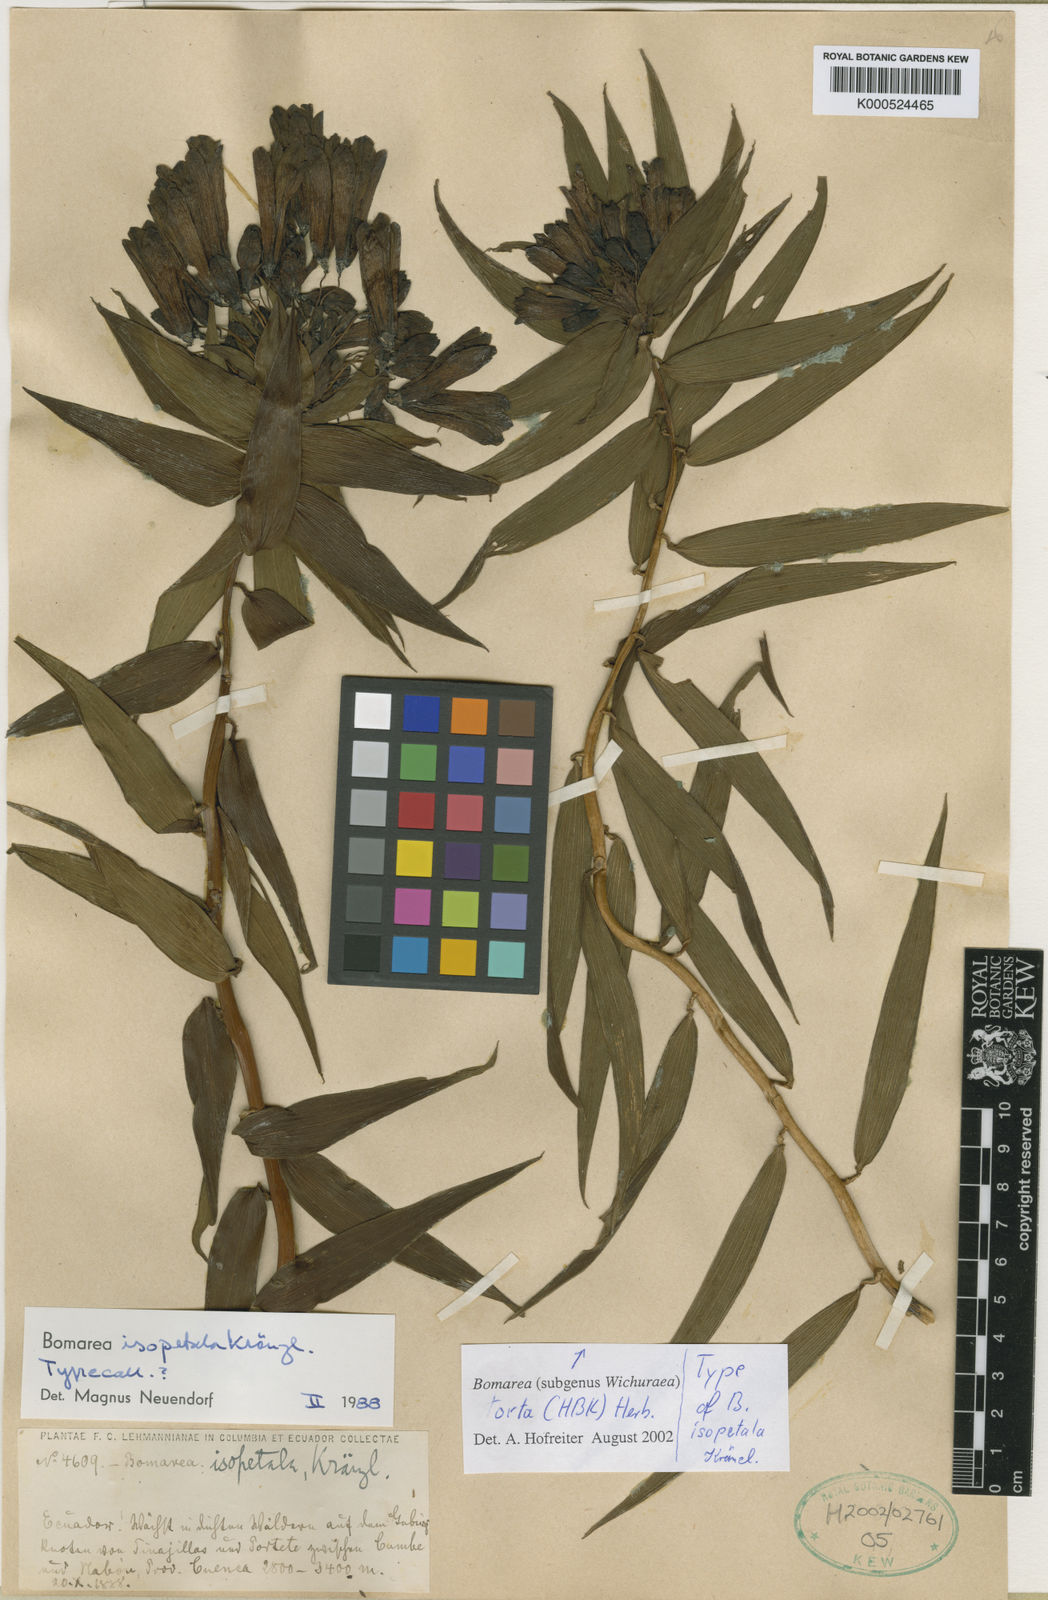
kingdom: Plantae
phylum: Tracheophyta
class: Liliopsida
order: Liliales
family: Alstroemeriaceae
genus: Bomarea
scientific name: Bomarea torta
